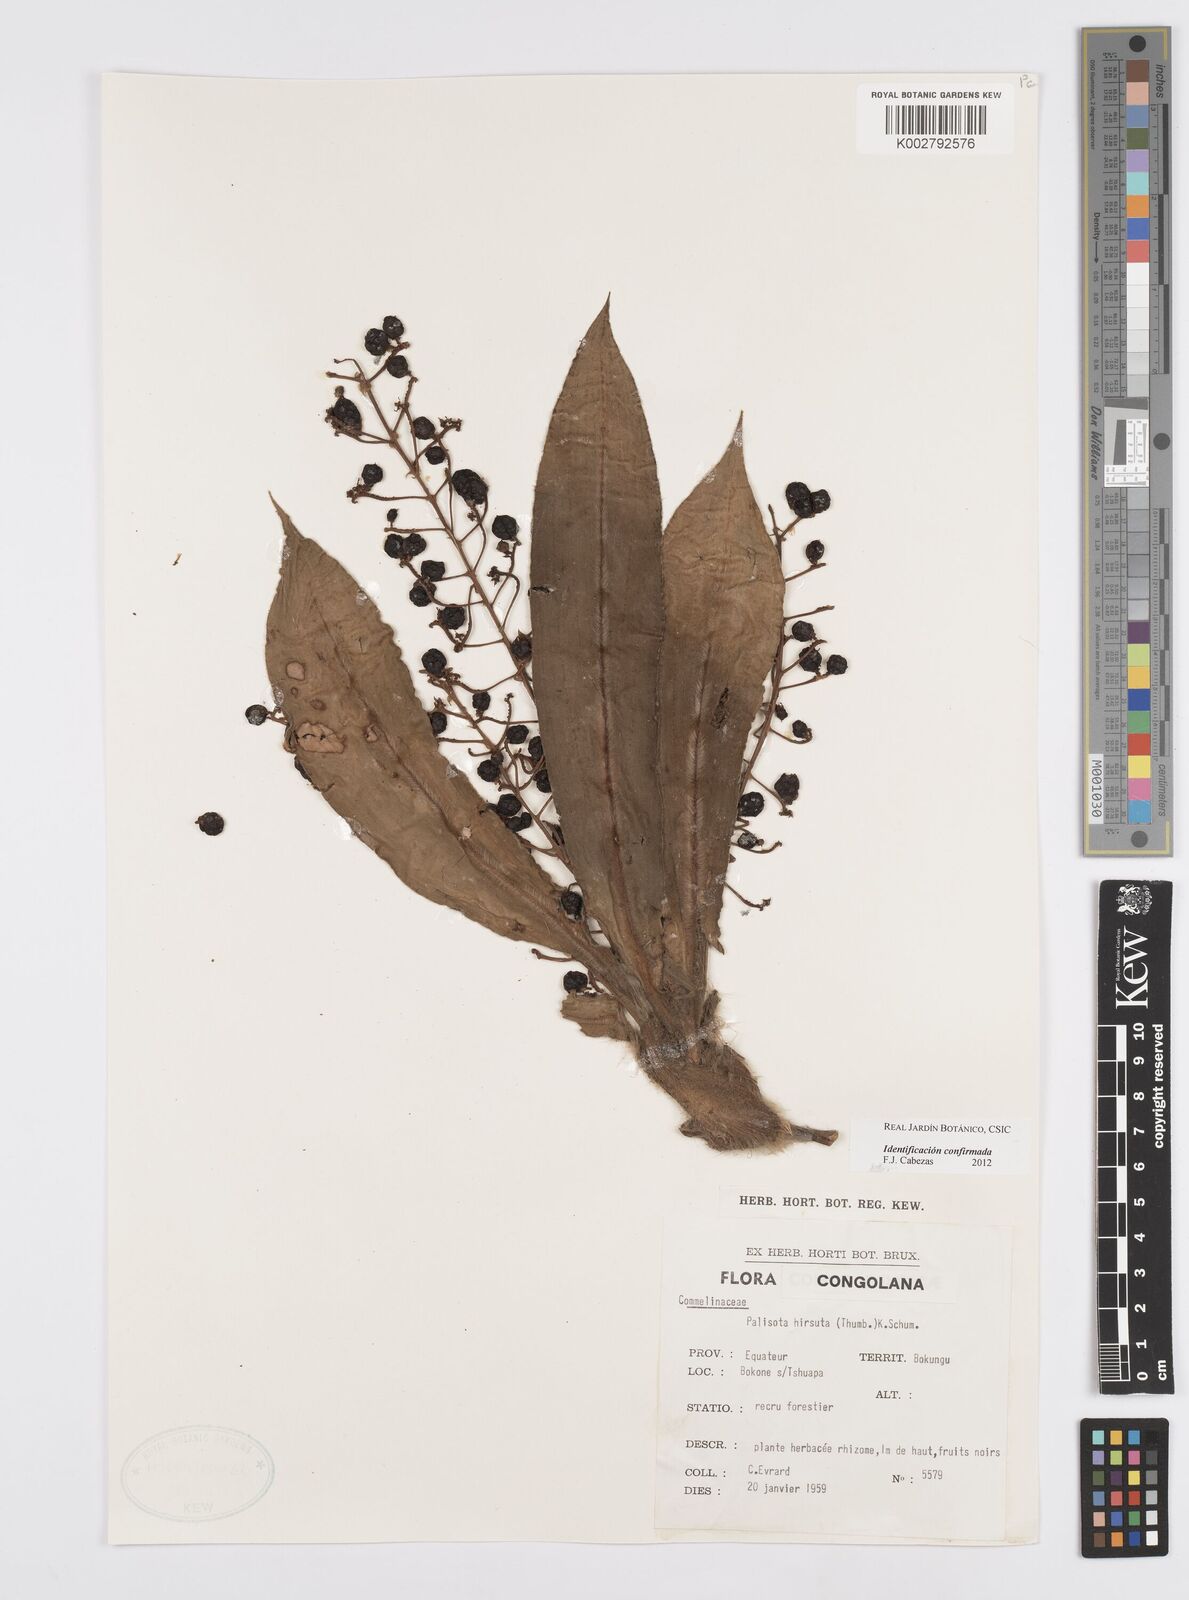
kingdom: Plantae
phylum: Tracheophyta
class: Liliopsida
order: Commelinales
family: Commelinaceae
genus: Palisota
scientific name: Palisota hirsuta
